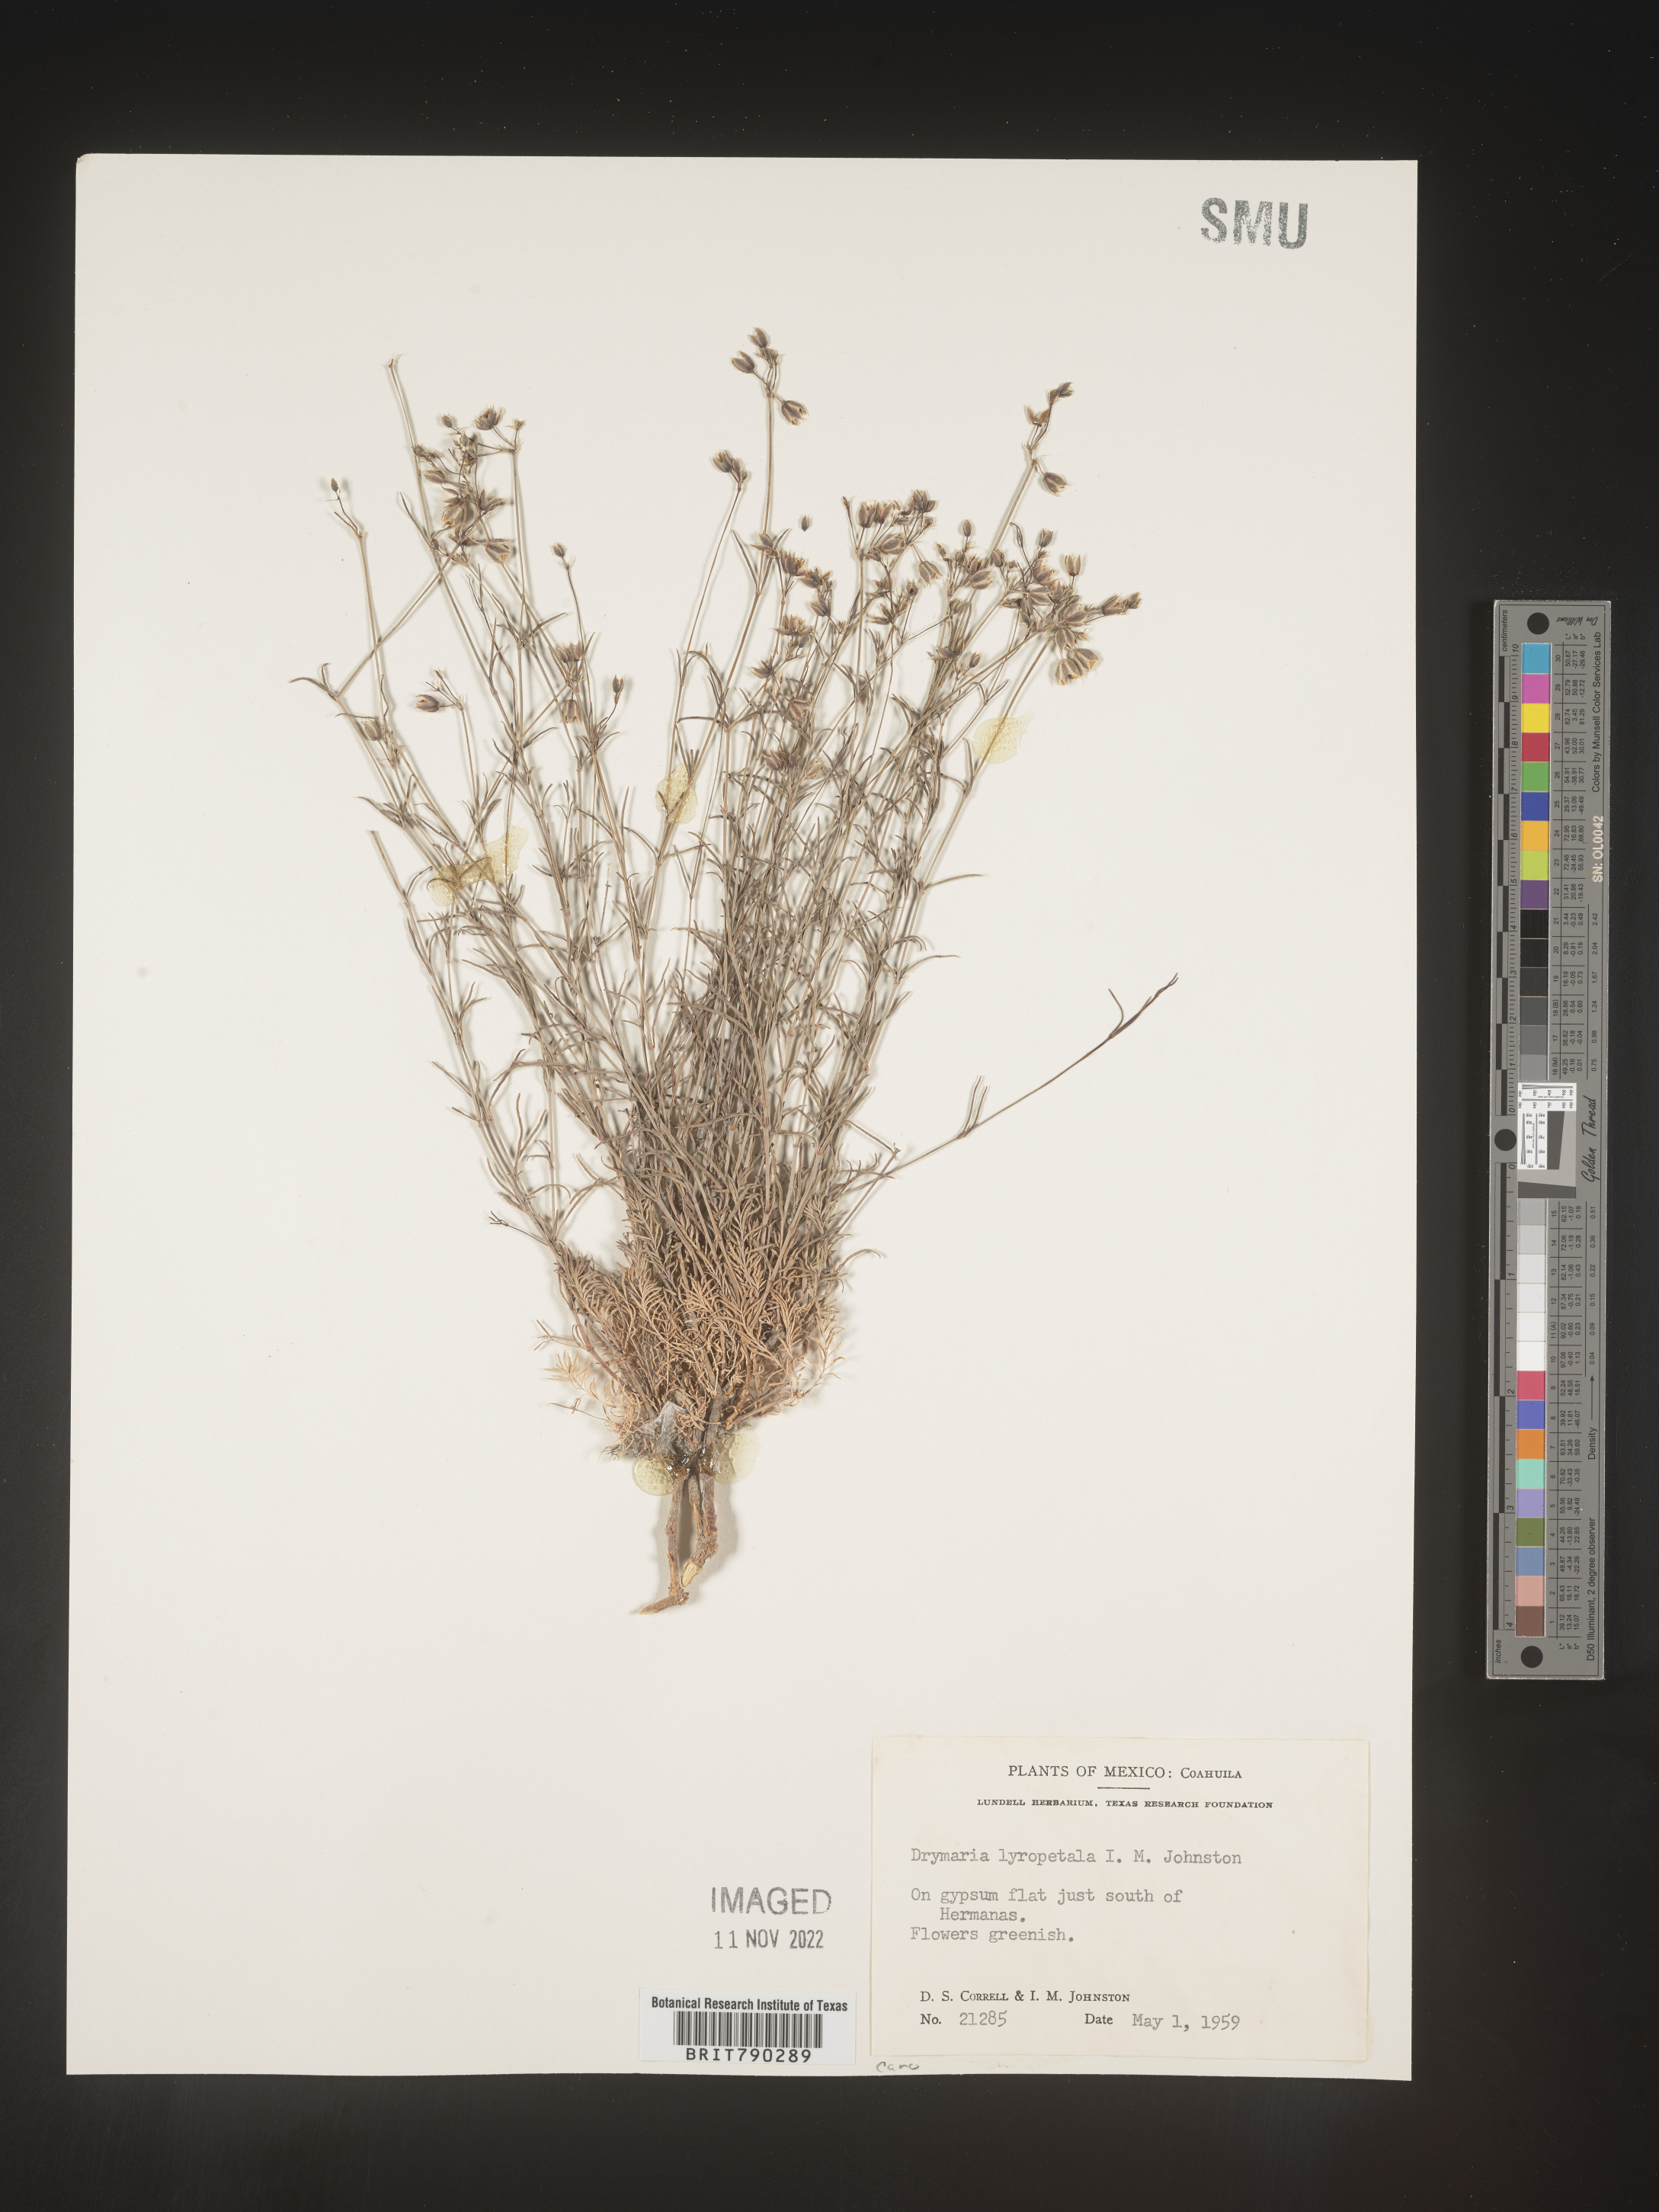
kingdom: Plantae
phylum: Tracheophyta
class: Magnoliopsida
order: Caryophyllales
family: Caryophyllaceae
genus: Drymaria
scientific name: Drymaria
